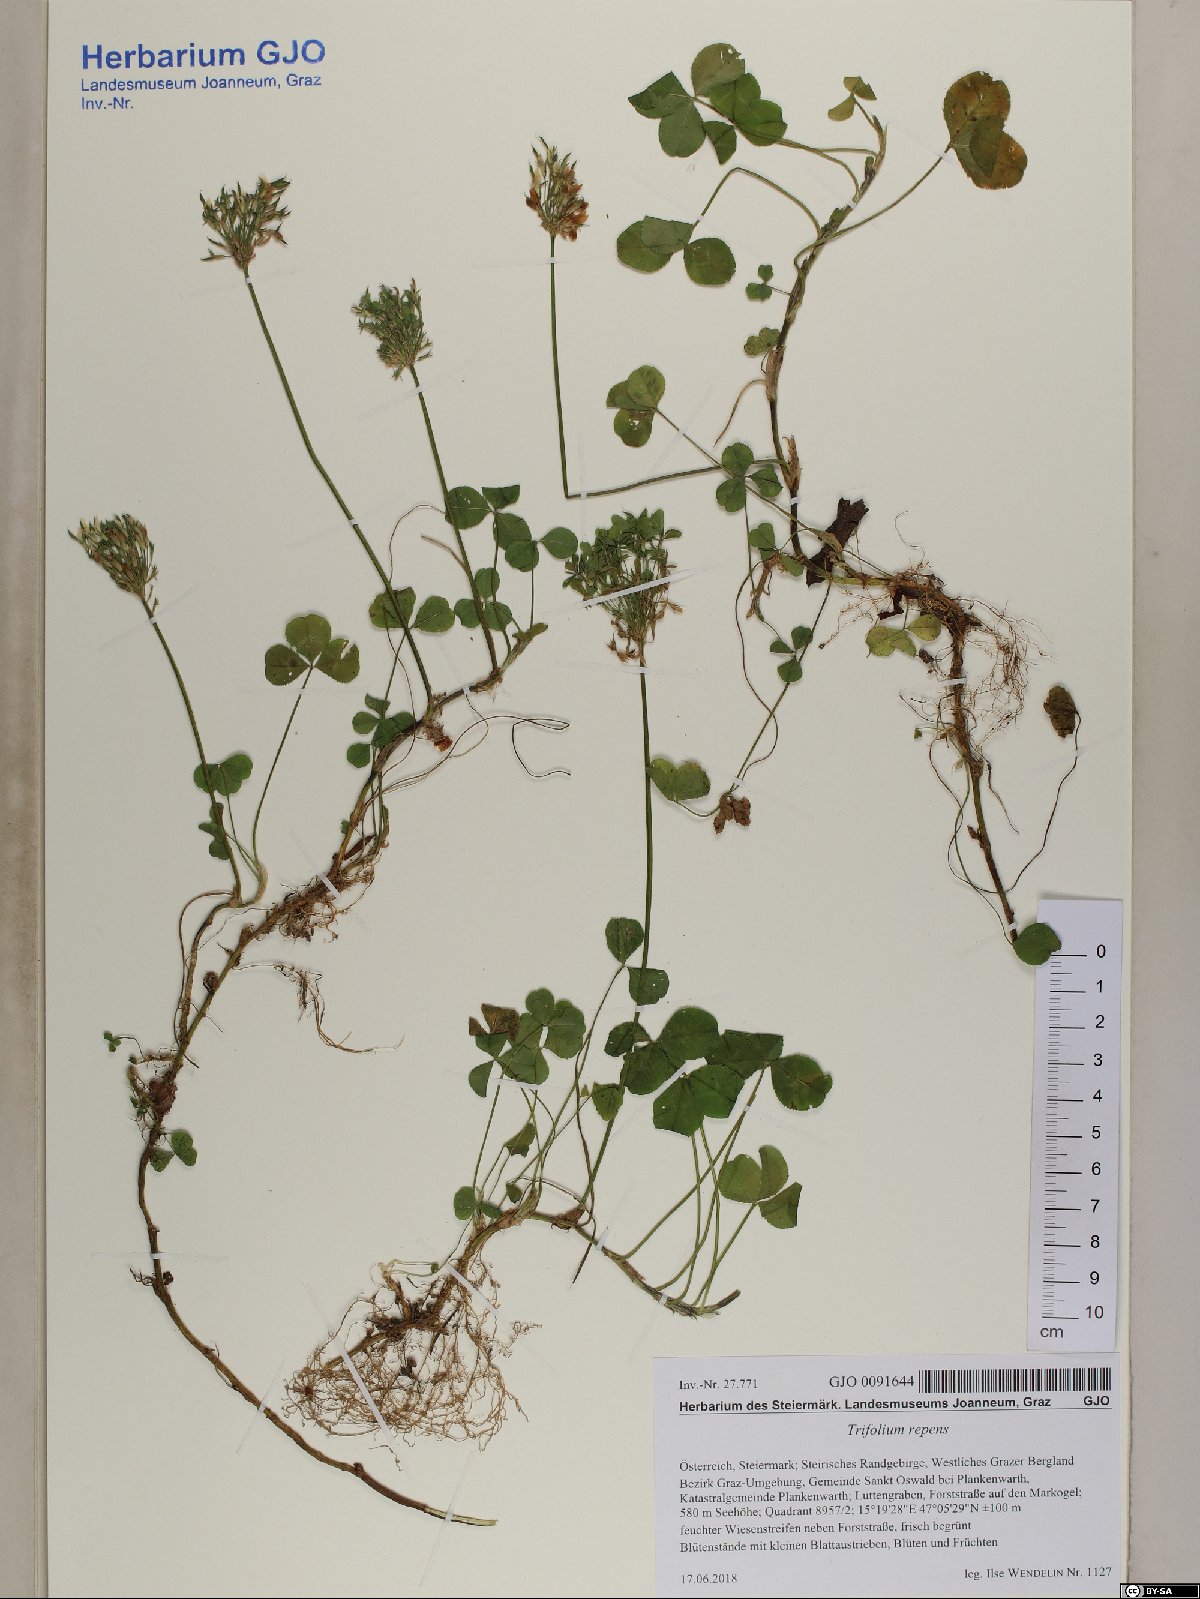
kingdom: Plantae
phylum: Tracheophyta
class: Magnoliopsida
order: Fabales
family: Fabaceae
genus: Trifolium
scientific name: Trifolium repens
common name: White clover
